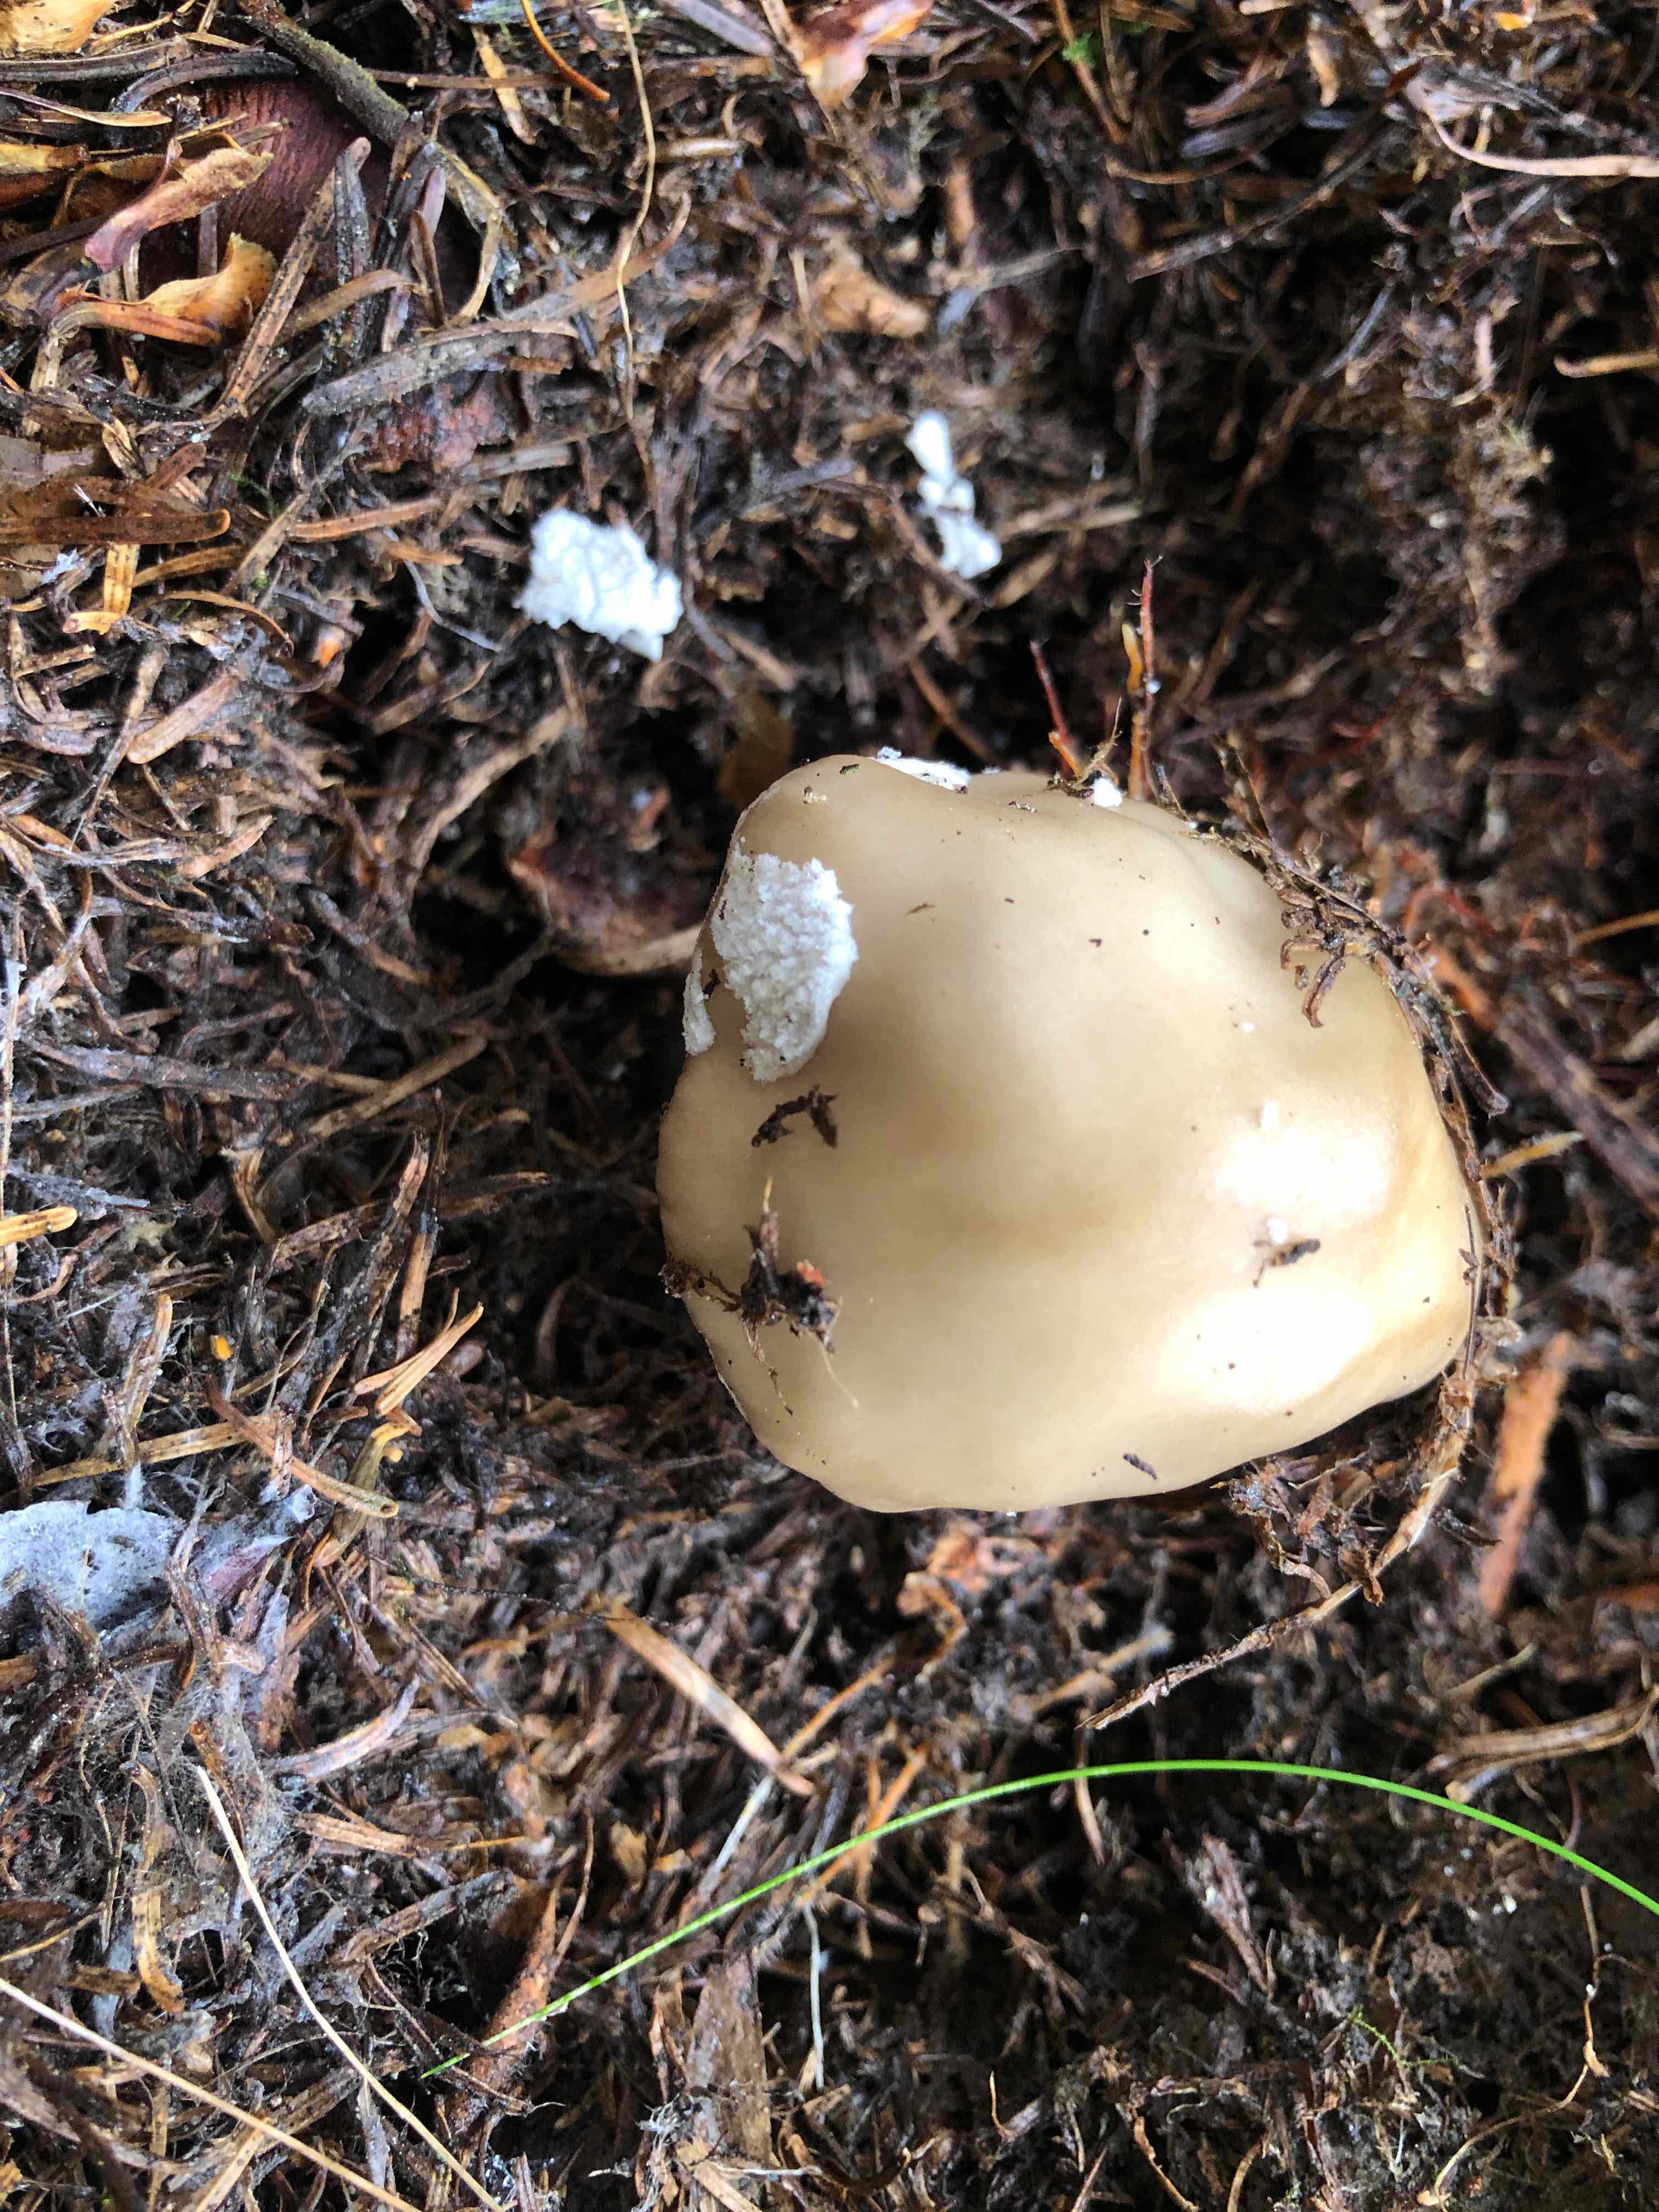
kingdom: Fungi
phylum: Basidiomycota
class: Agaricomycetes
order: Agaricales
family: Amanitaceae
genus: Amanita
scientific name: Amanita
